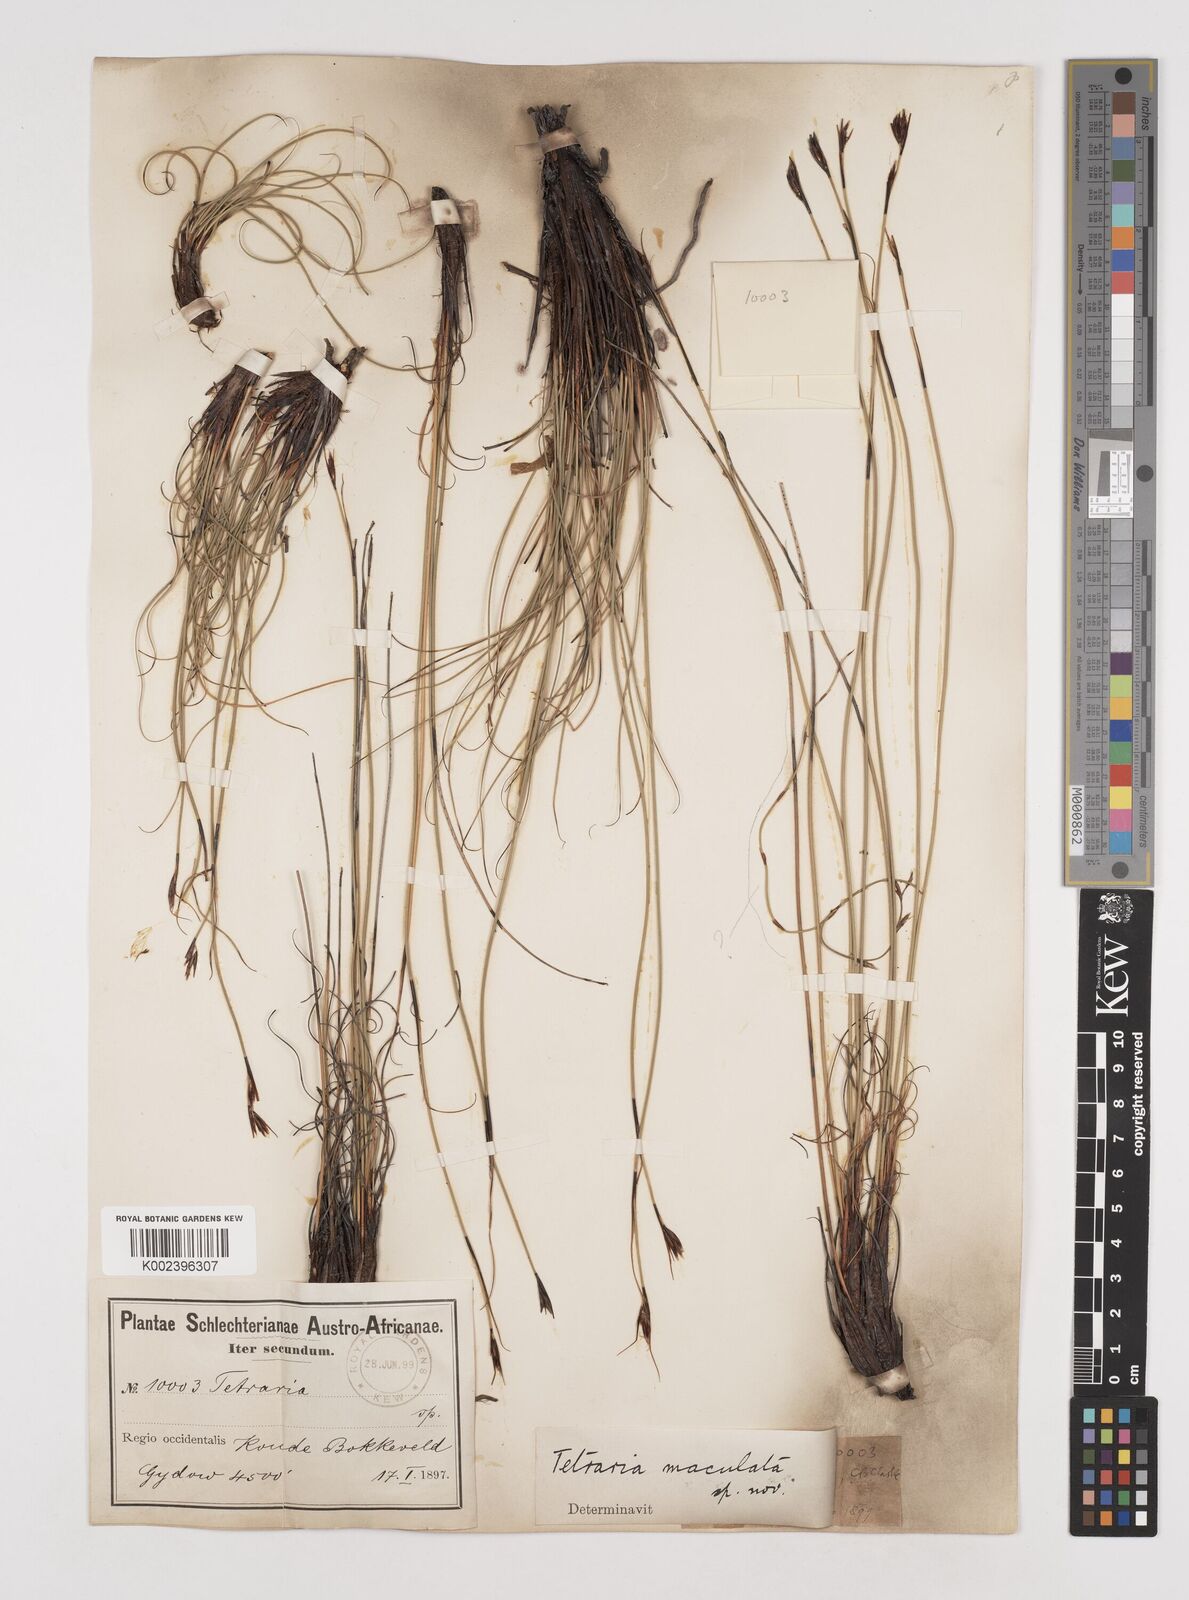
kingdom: Plantae
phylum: Tracheophyta
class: Liliopsida
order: Poales
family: Cyperaceae
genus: Tetraria
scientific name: Tetraria maculata
